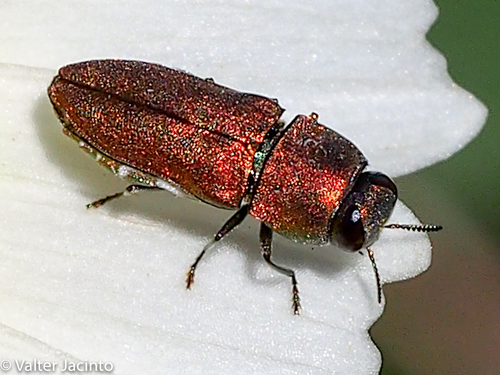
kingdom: Animalia
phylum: Arthropoda
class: Insecta
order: Coleoptera
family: Buprestidae
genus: Anthaxia
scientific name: Anthaxia umbellatarum
